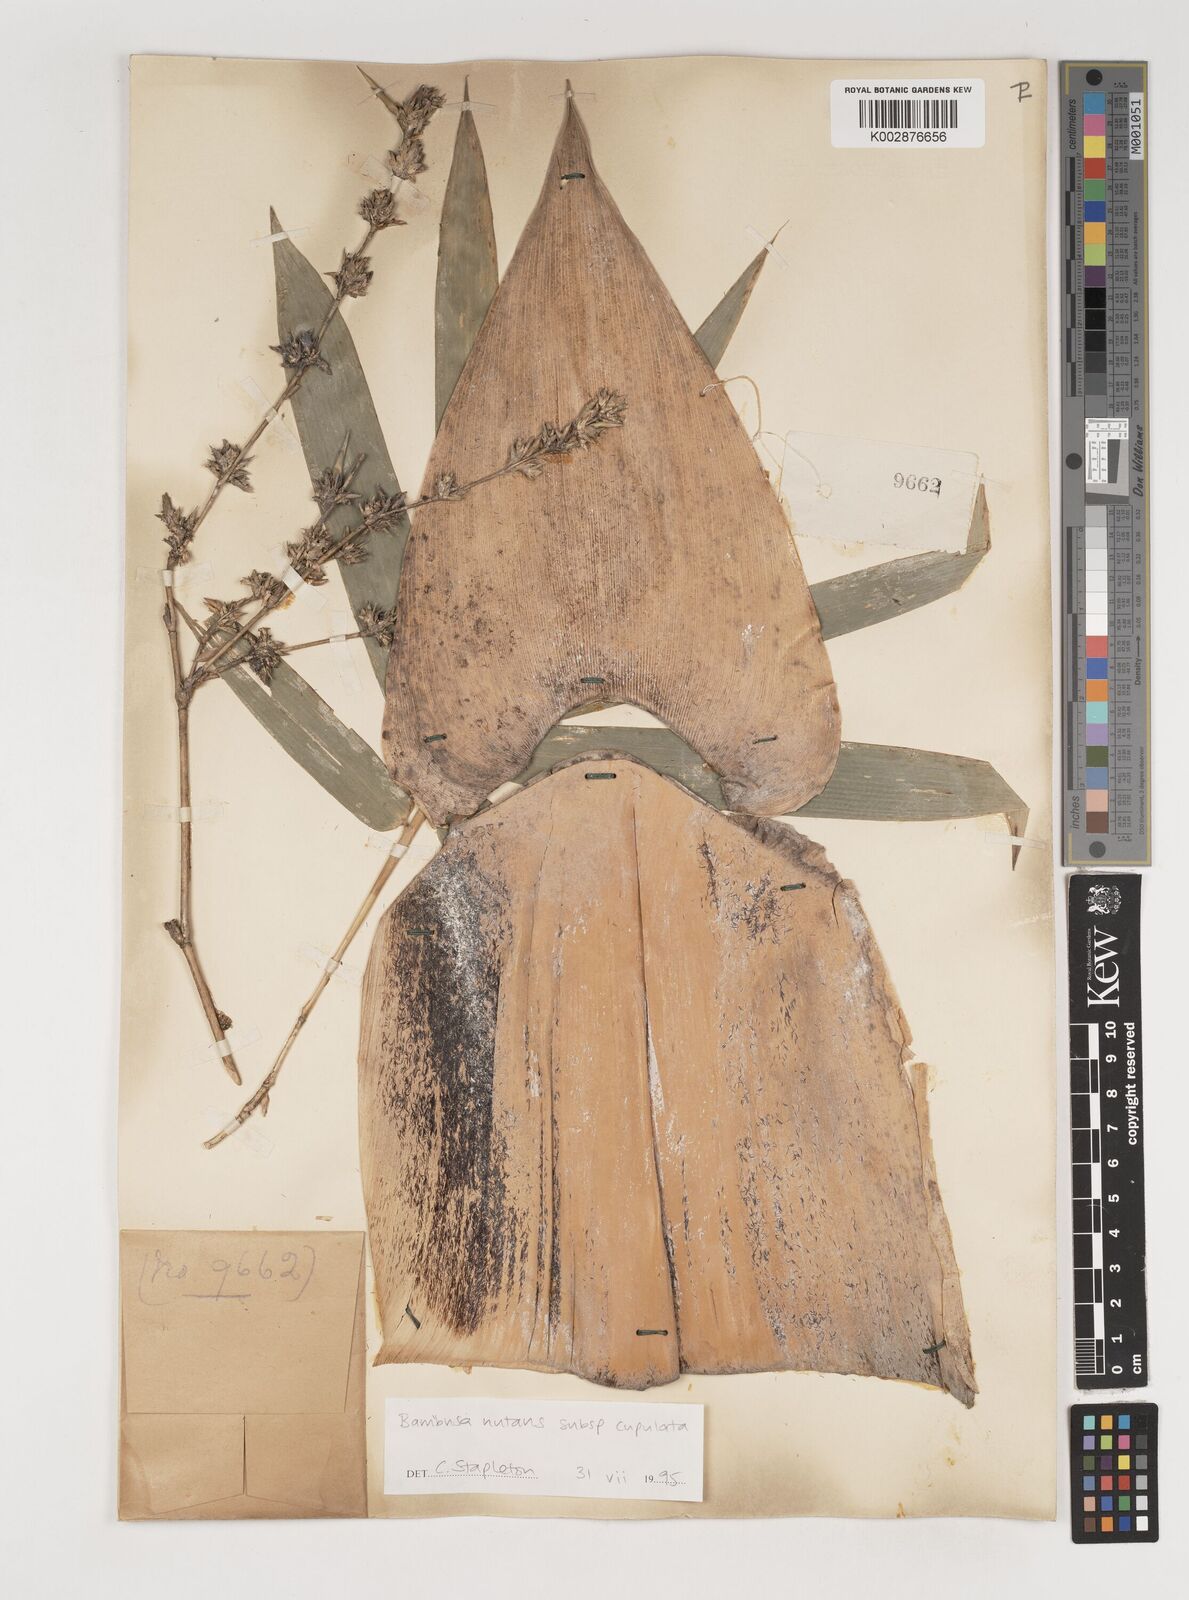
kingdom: Plantae
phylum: Tracheophyta
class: Liliopsida
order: Poales
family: Poaceae
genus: Bambusa
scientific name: Bambusa nutans
